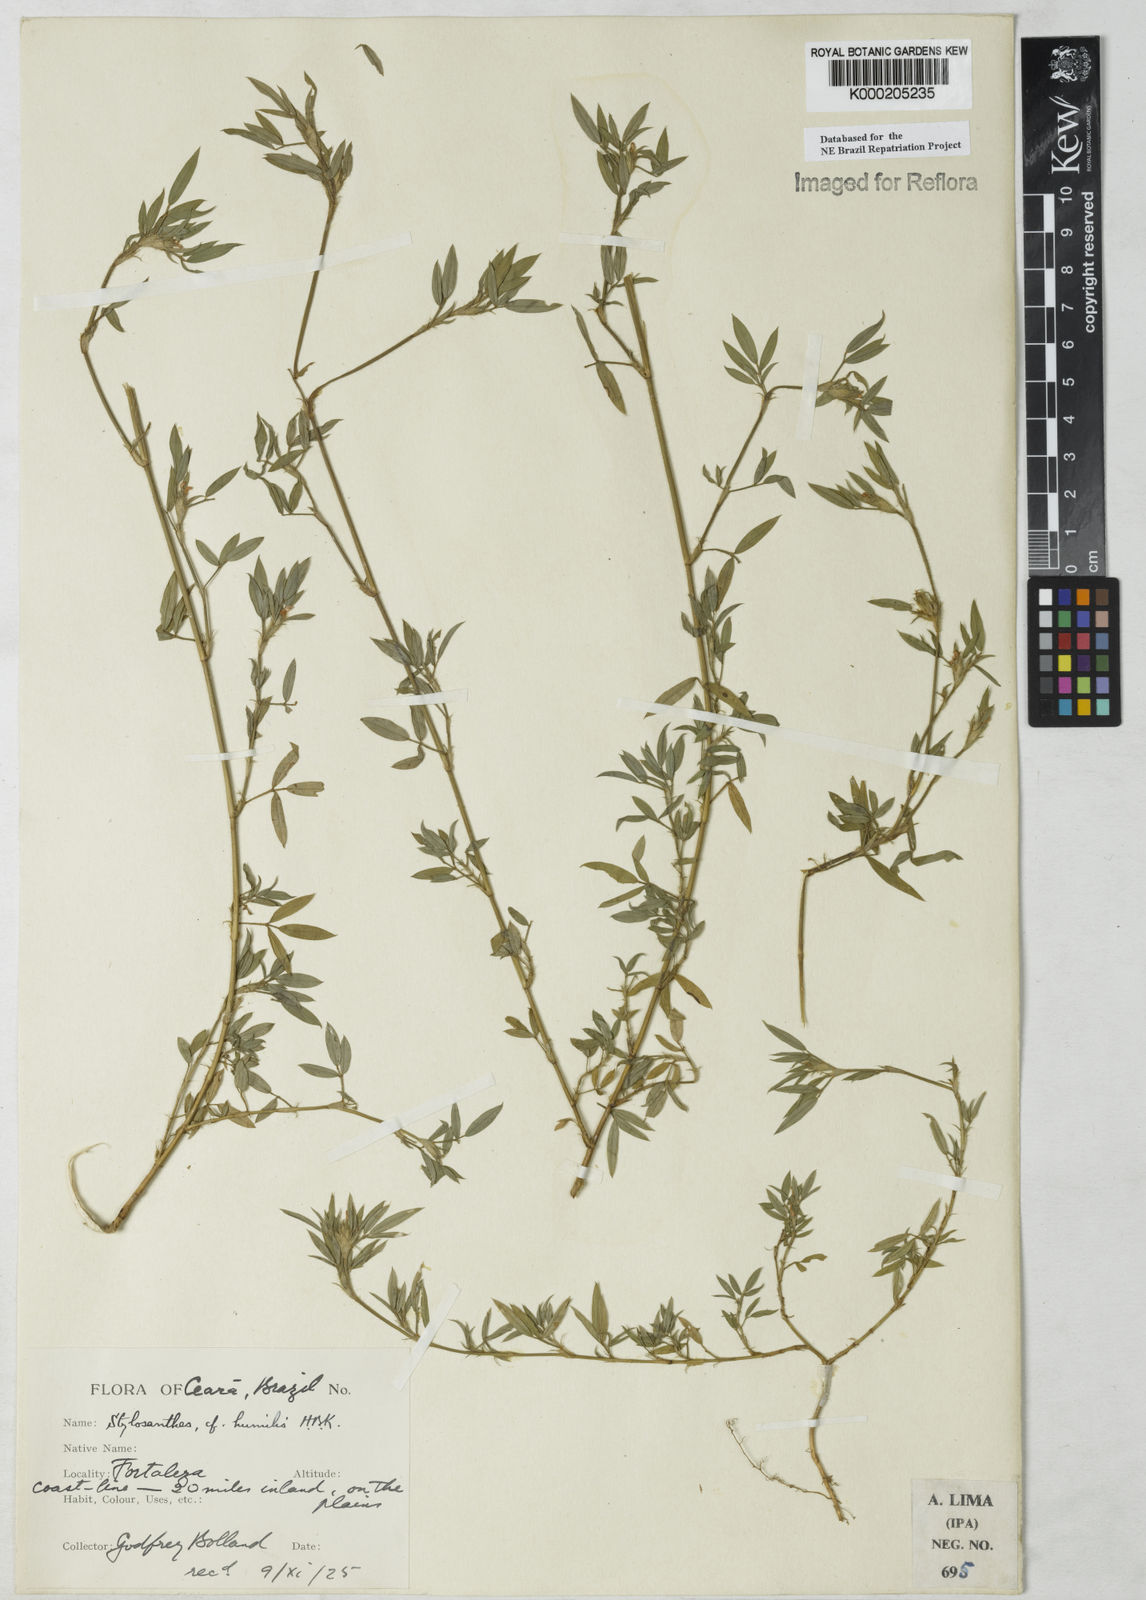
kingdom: Plantae
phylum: Tracheophyta
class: Magnoliopsida
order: Fabales
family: Fabaceae
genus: Stylosanthes
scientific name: Stylosanthes humilis
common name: Townsville stylo
